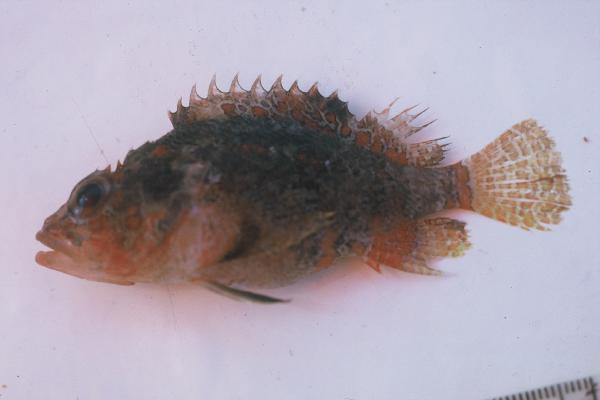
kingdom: Animalia
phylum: Chordata
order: Scorpaeniformes
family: Scorpaenidae
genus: Scorpaenodes
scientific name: Scorpaenodes varipinnis
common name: Blotchfin scorpionfish
